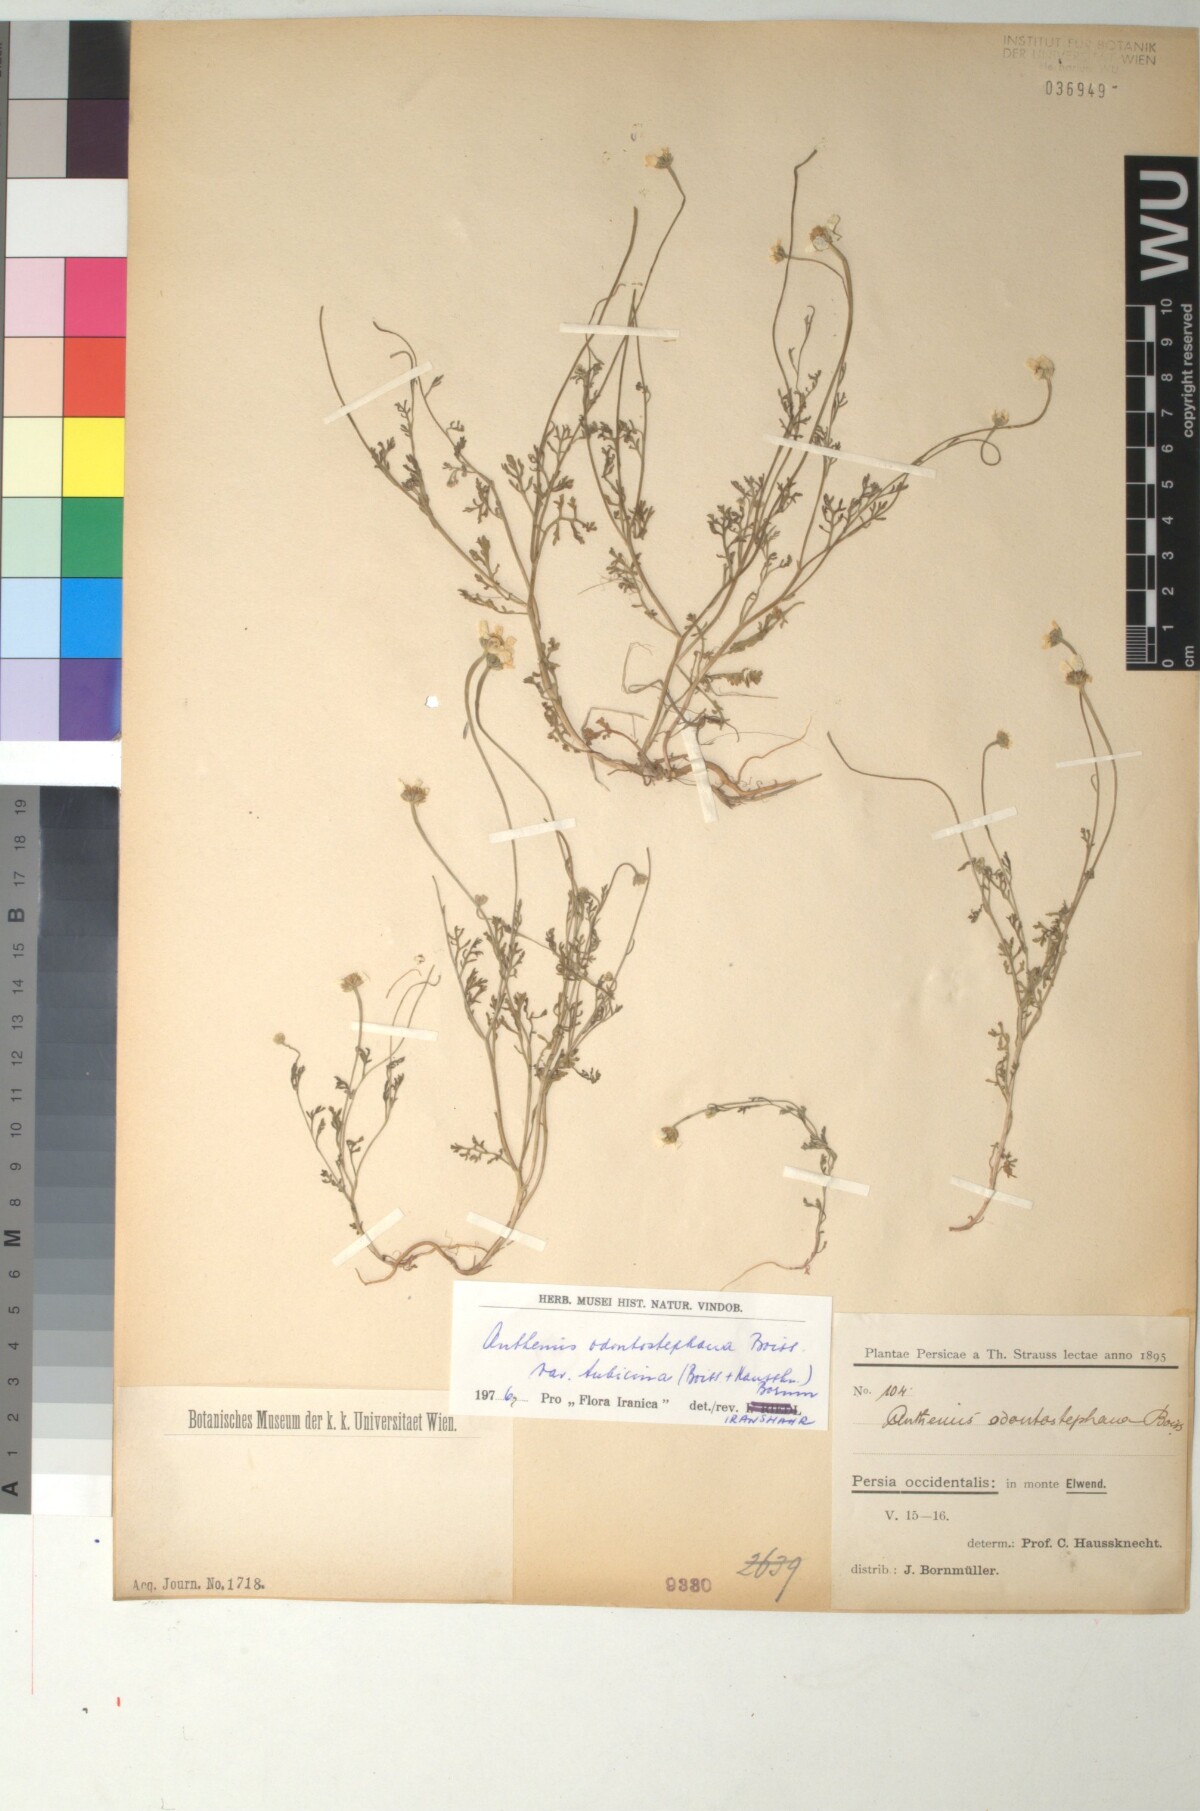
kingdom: Plantae
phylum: Tracheophyta
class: Magnoliopsida
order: Asterales
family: Asteraceae
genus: Anthemis
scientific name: Anthemis tubicina
